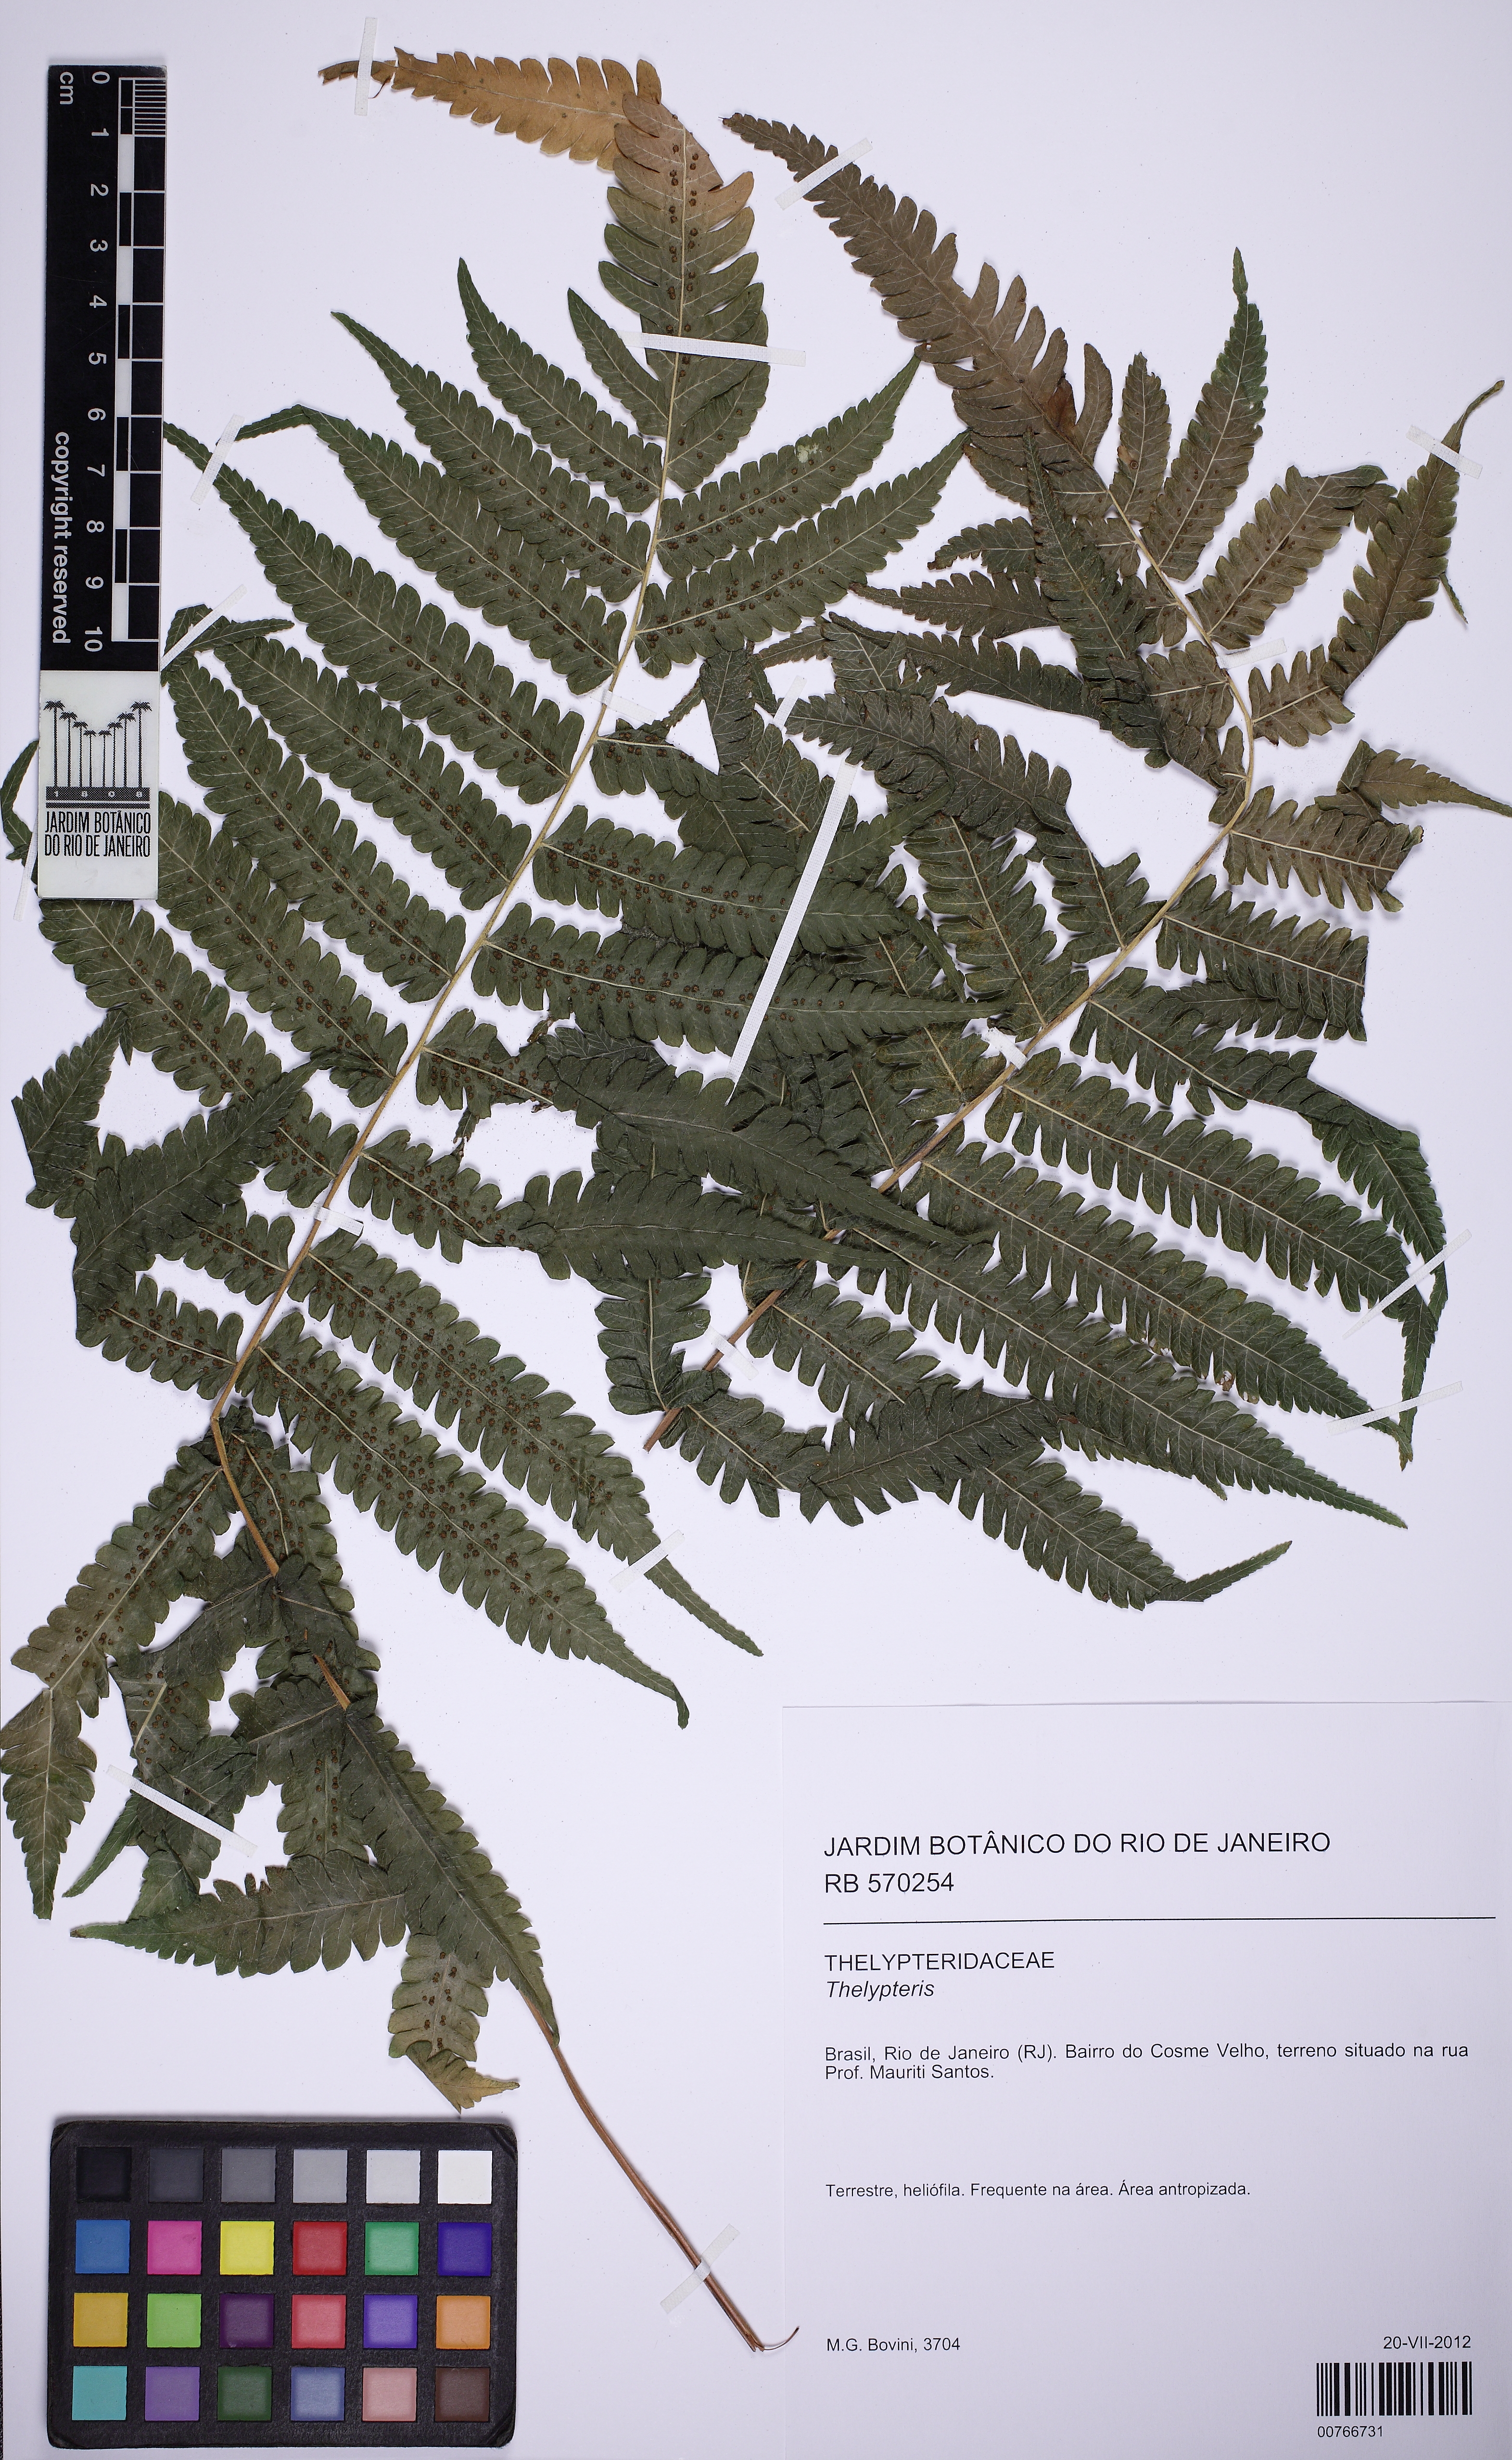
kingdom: Plantae
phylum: Tracheophyta
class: Polypodiopsida
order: Polypodiales
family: Thelypteridaceae
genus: Christella
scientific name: Christella dentata
